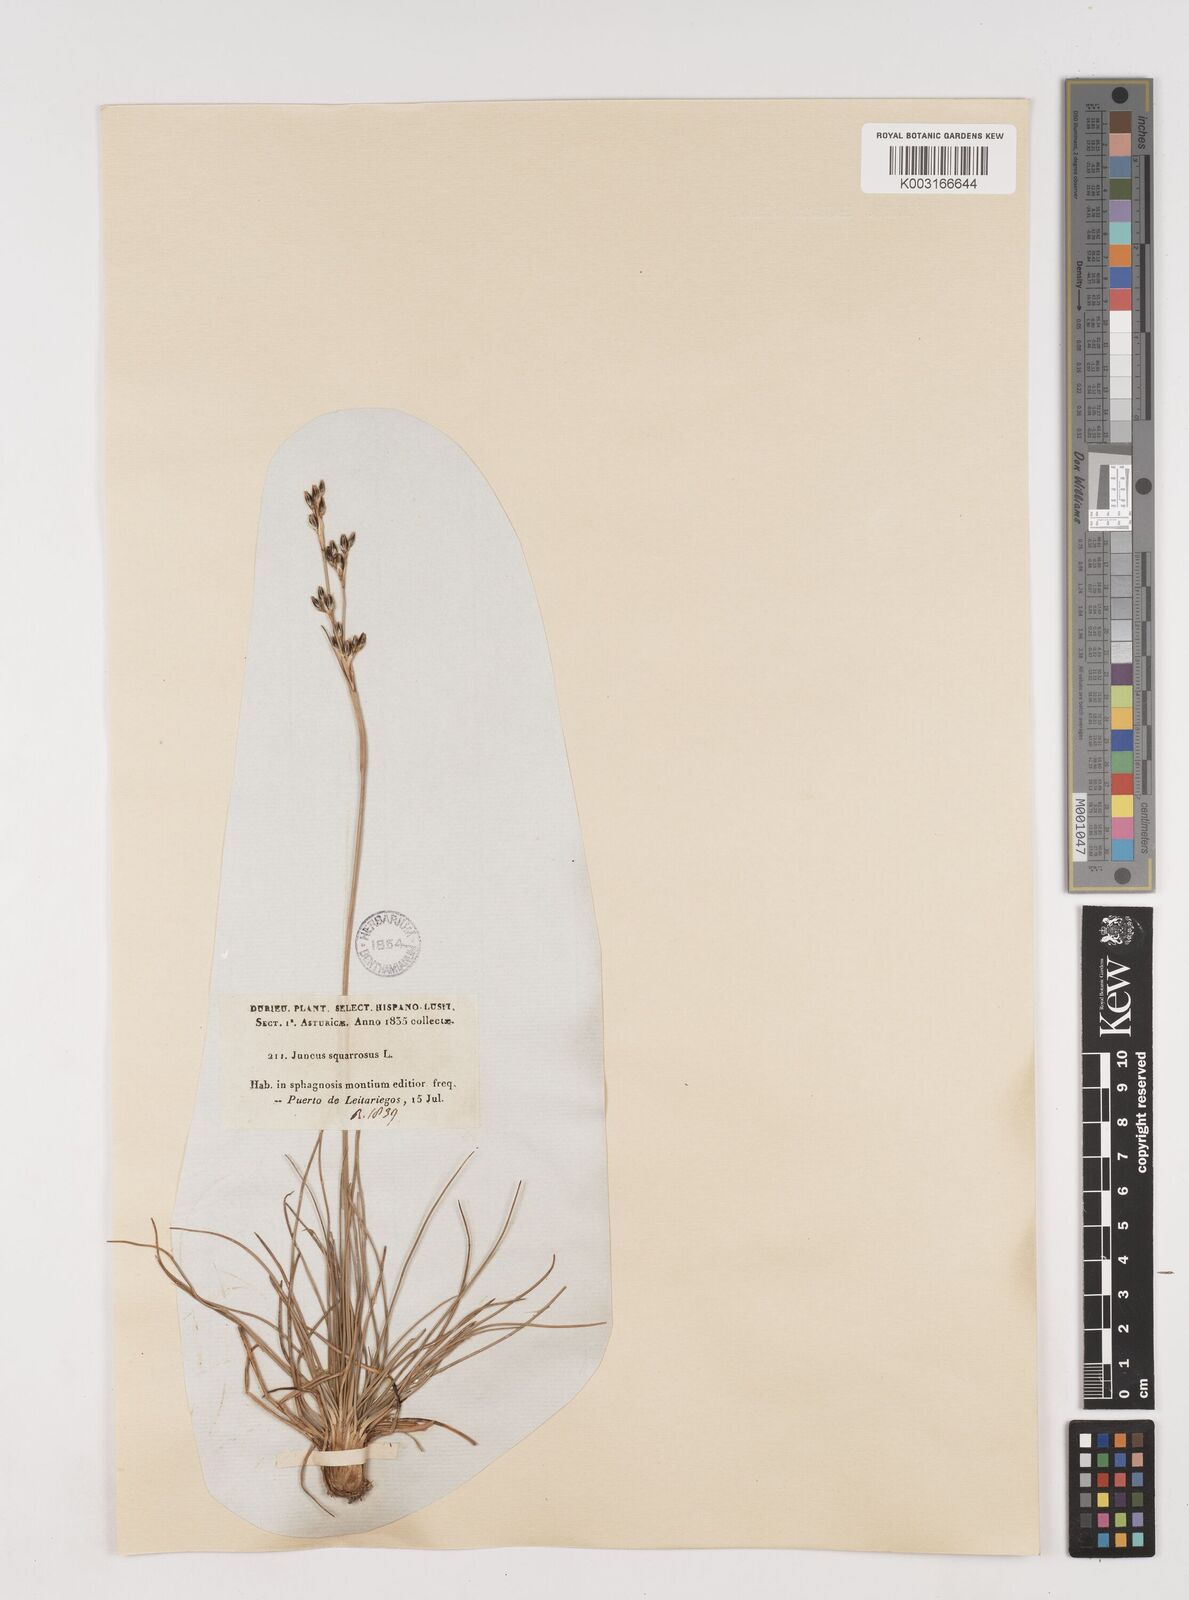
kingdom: Plantae
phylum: Tracheophyta
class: Liliopsida
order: Poales
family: Juncaceae
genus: Juncus
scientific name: Juncus squarrosus
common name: Heath rush
